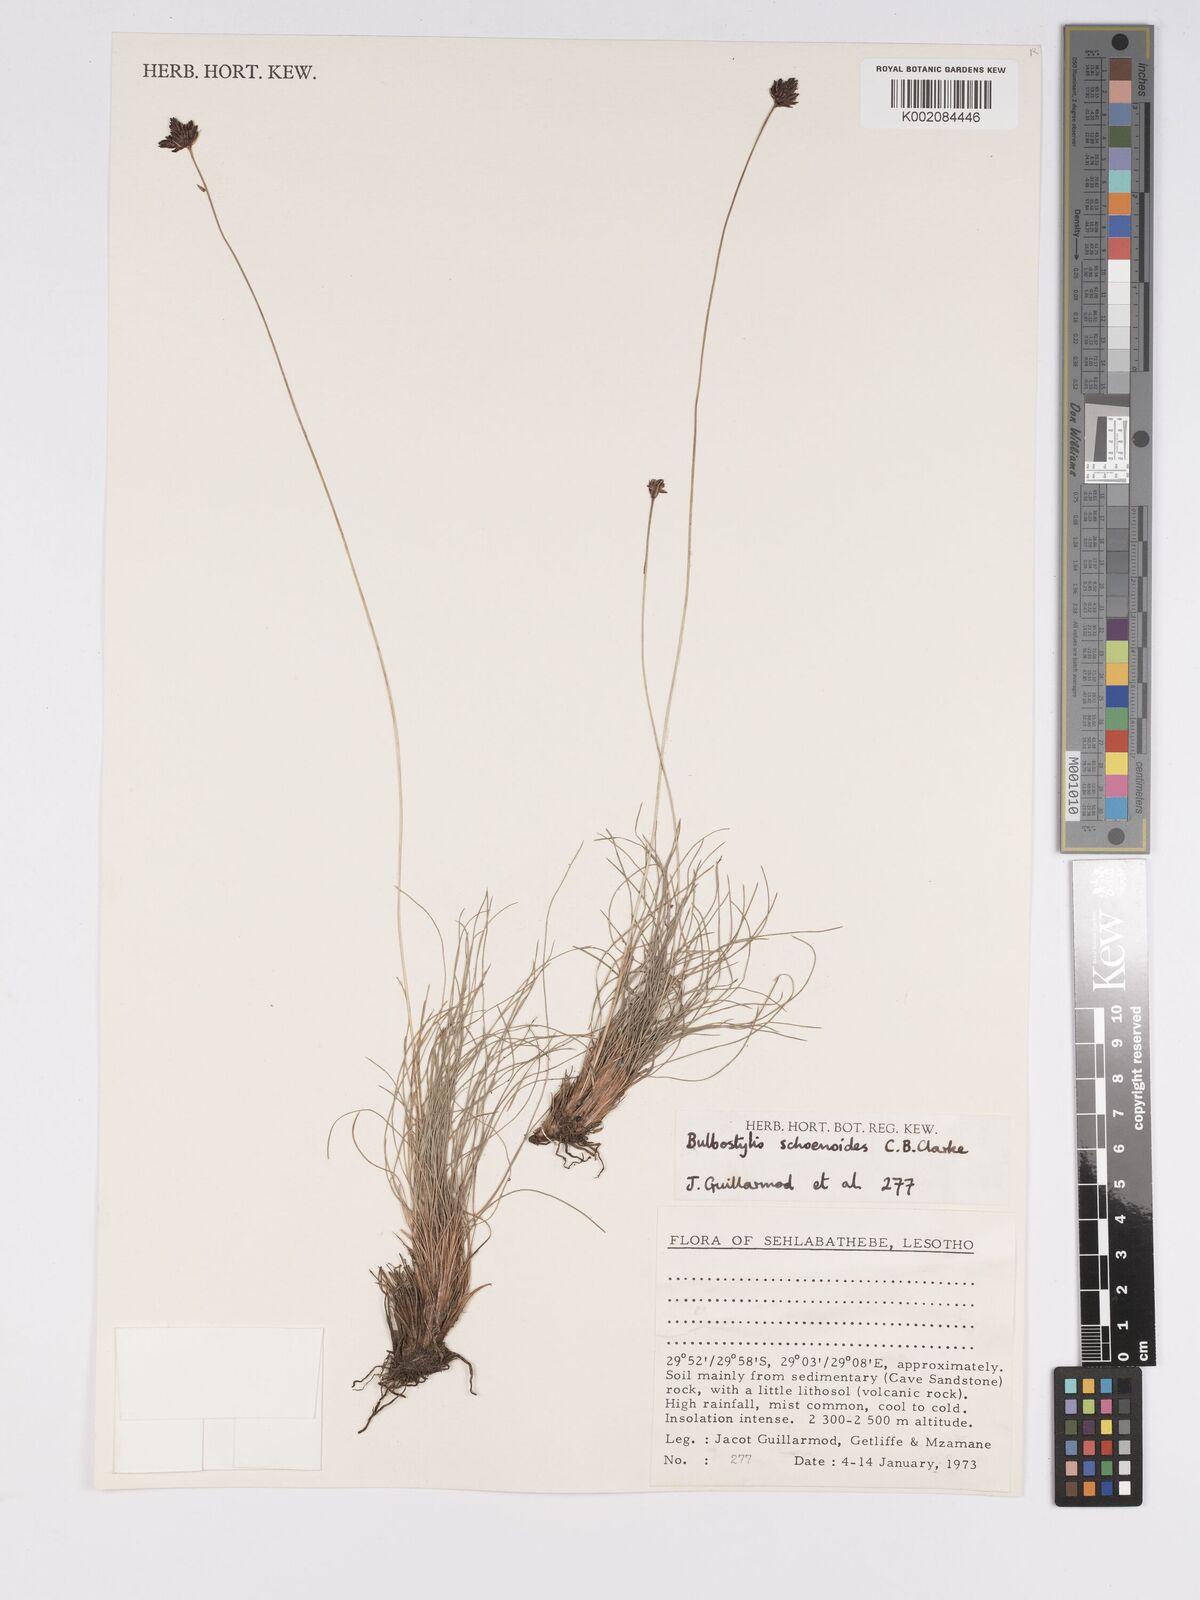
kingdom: Plantae
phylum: Tracheophyta
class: Liliopsida
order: Poales
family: Cyperaceae
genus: Bulbostylis
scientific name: Bulbostylis schoenoides
